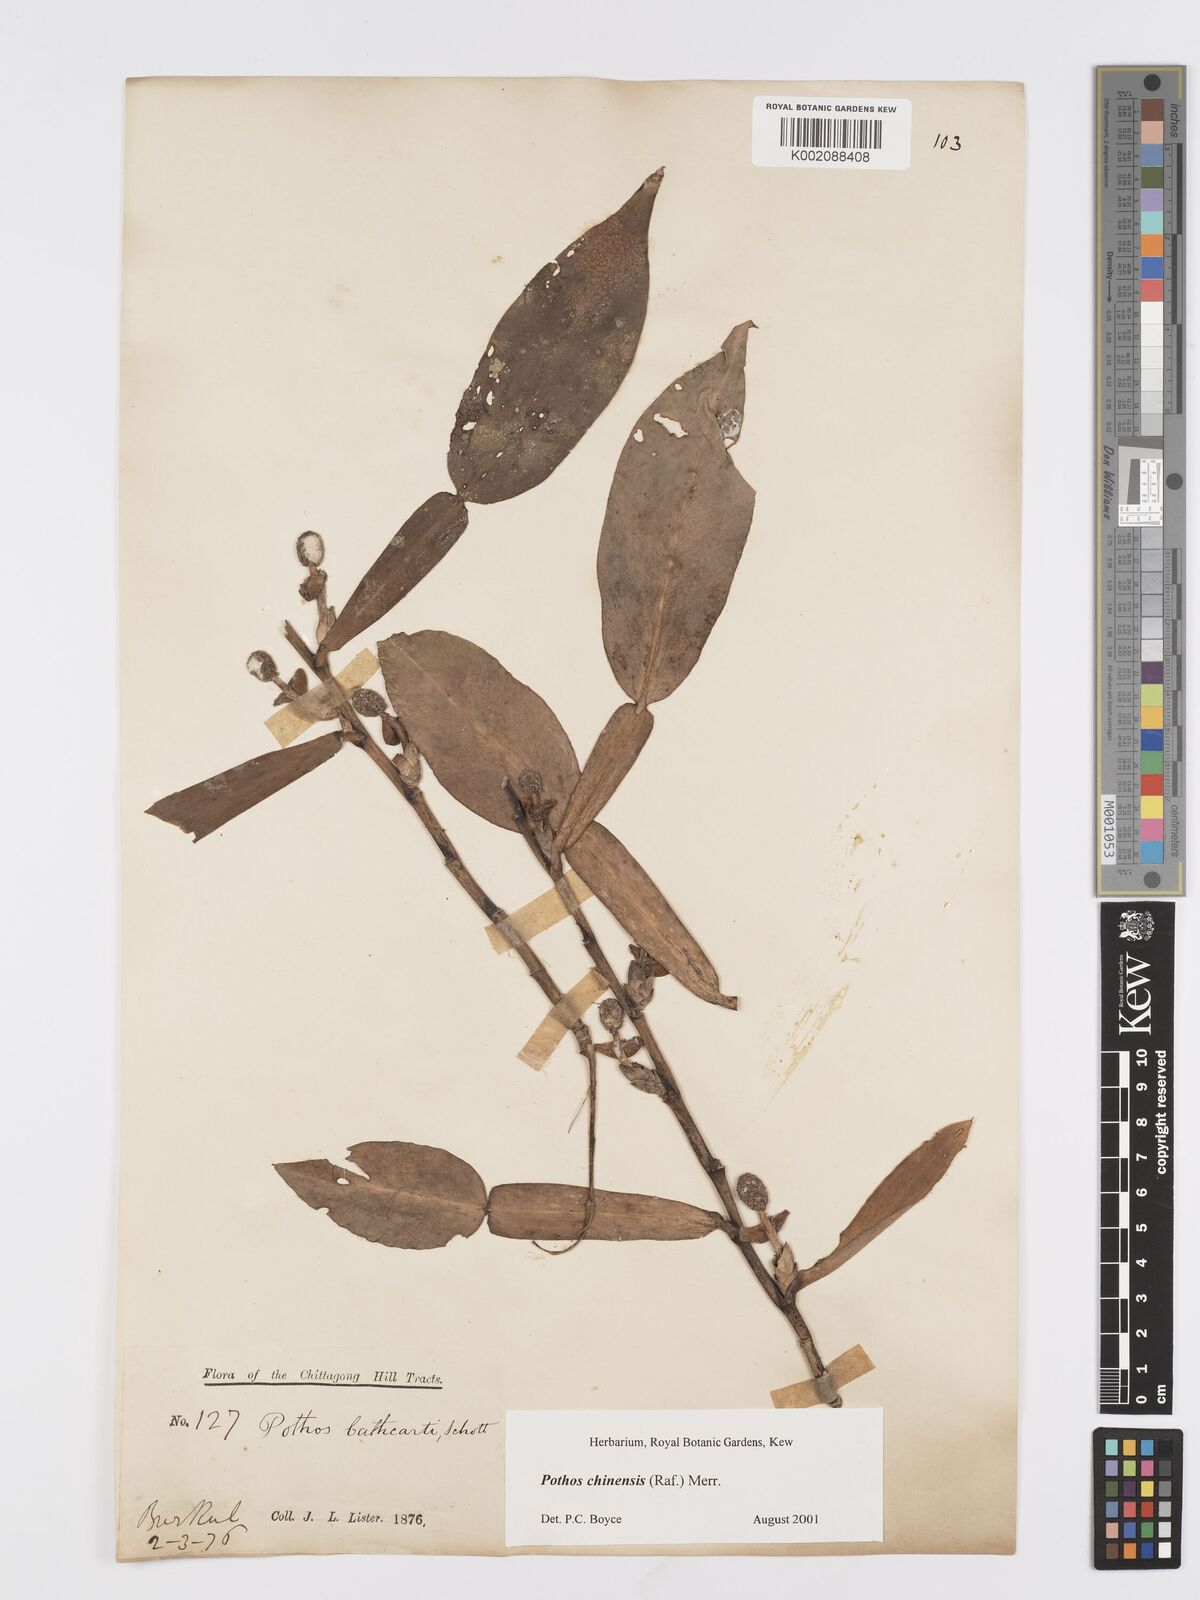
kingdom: Plantae
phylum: Tracheophyta
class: Liliopsida
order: Alismatales
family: Araceae
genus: Pothos
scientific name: Pothos chinensis
